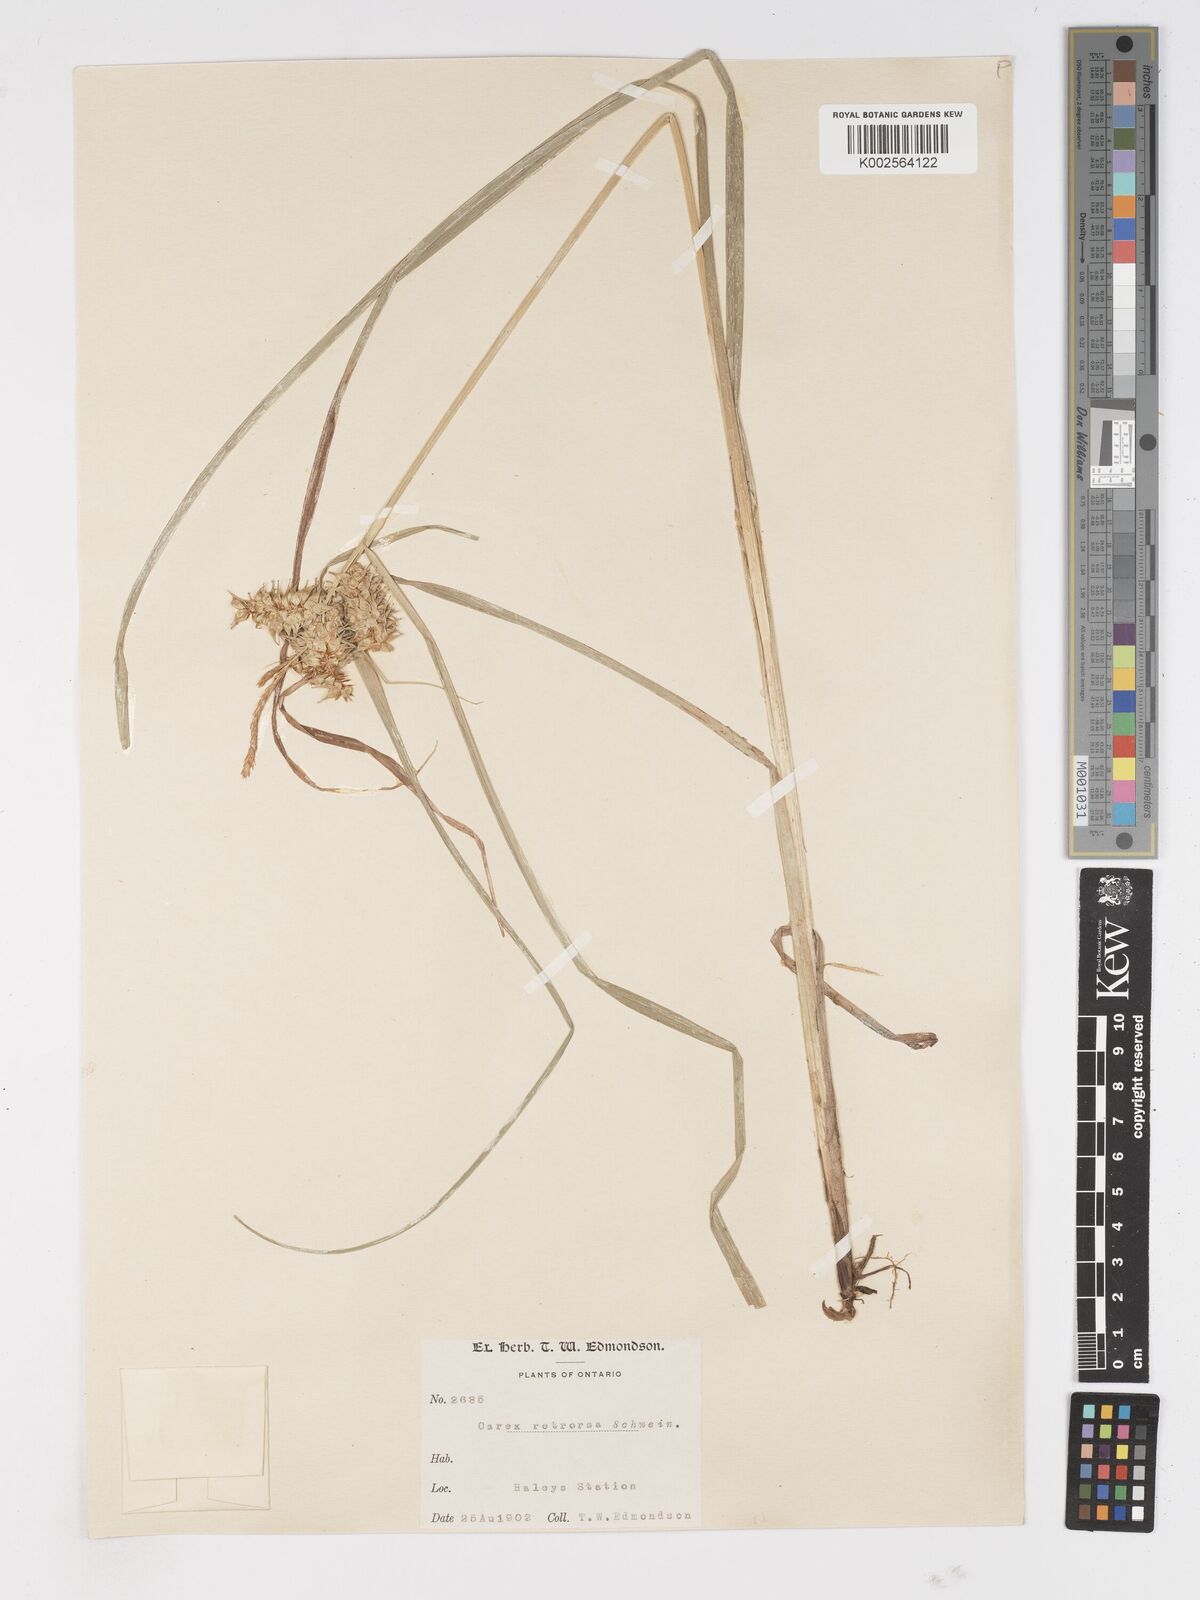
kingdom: Plantae
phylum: Tracheophyta
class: Liliopsida
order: Poales
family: Cyperaceae
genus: Carex
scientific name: Carex retrorsa
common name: Knot-sheath sedge
